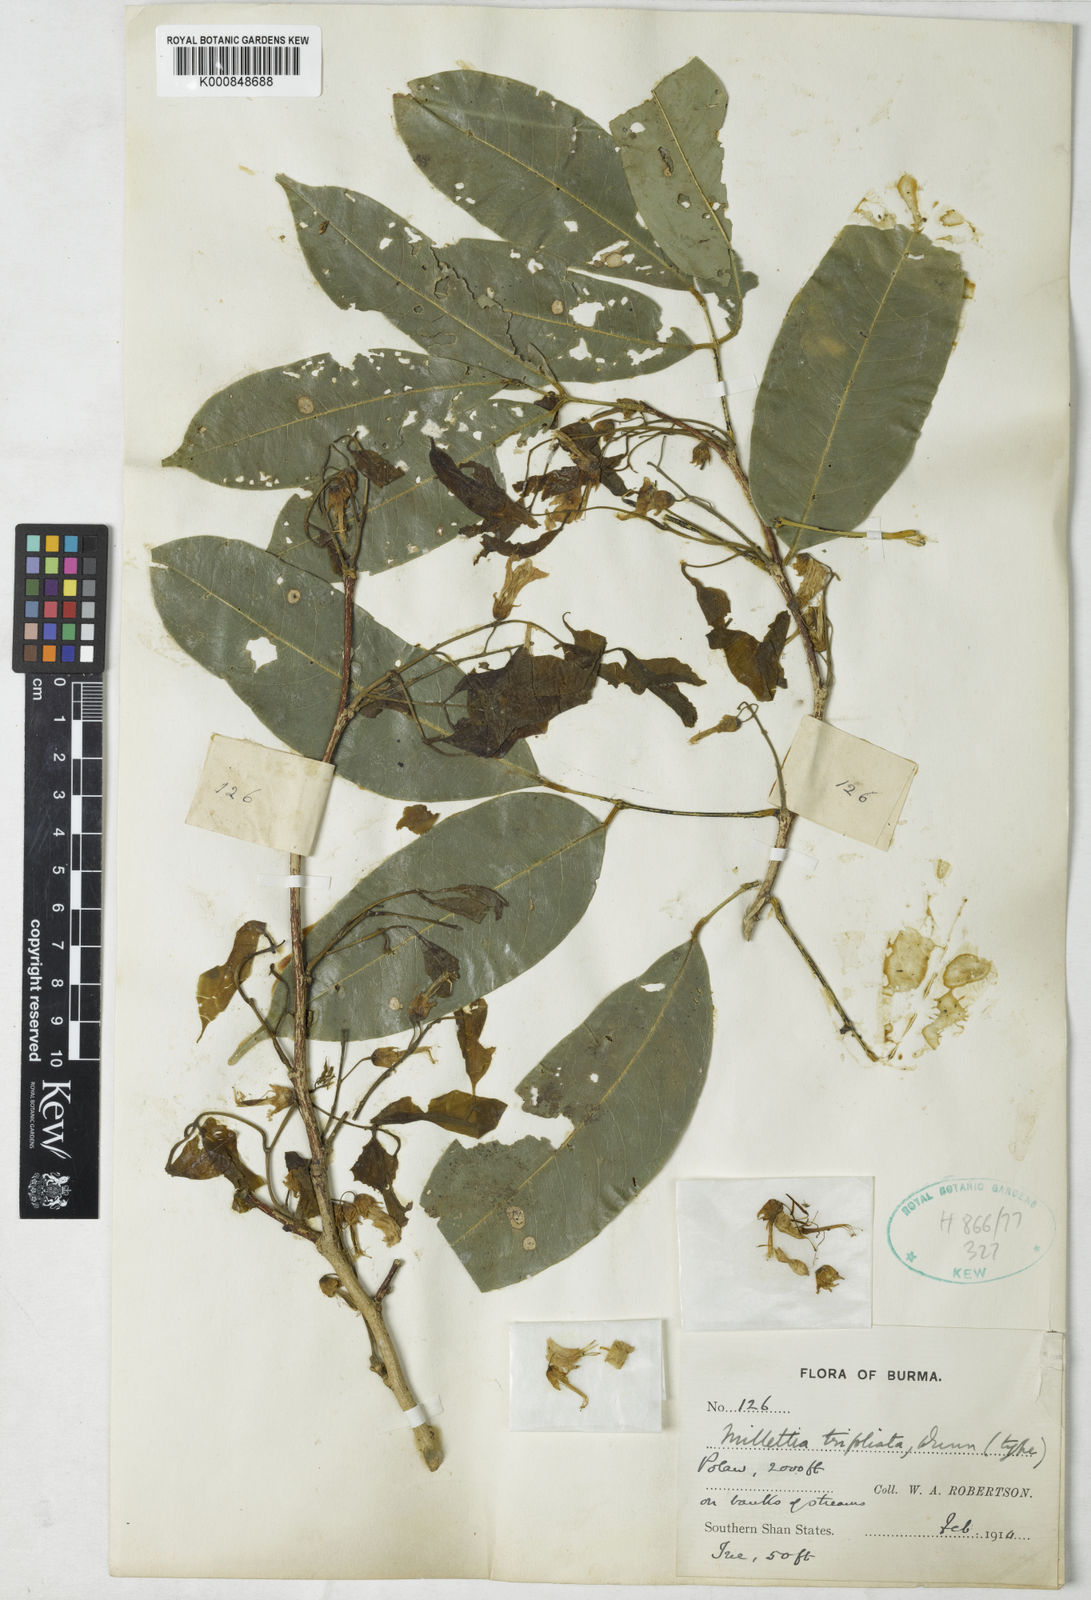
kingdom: Plantae
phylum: Tracheophyta
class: Magnoliopsida
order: Fabales
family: Fabaceae
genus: Millettia
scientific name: Millettia trifoliata
